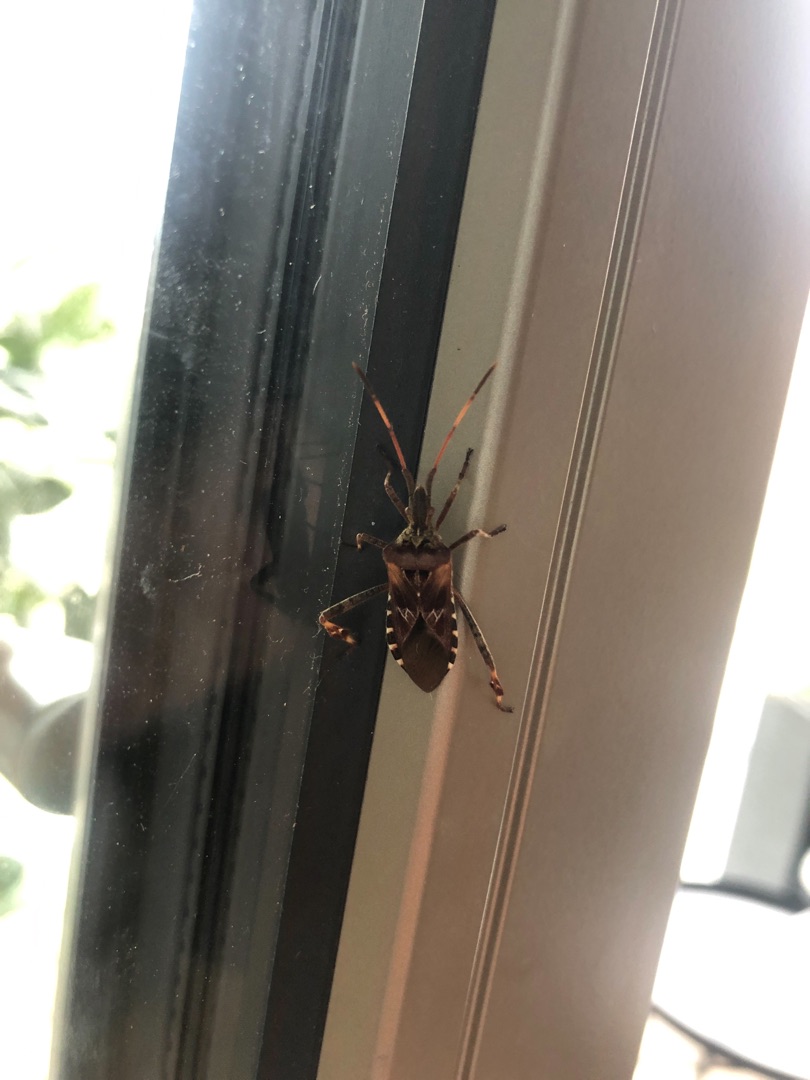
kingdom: Animalia
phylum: Arthropoda
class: Insecta
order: Hemiptera
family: Coreidae
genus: Leptoglossus
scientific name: Leptoglossus occidentalis
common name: Amerikansk fyrretæge
